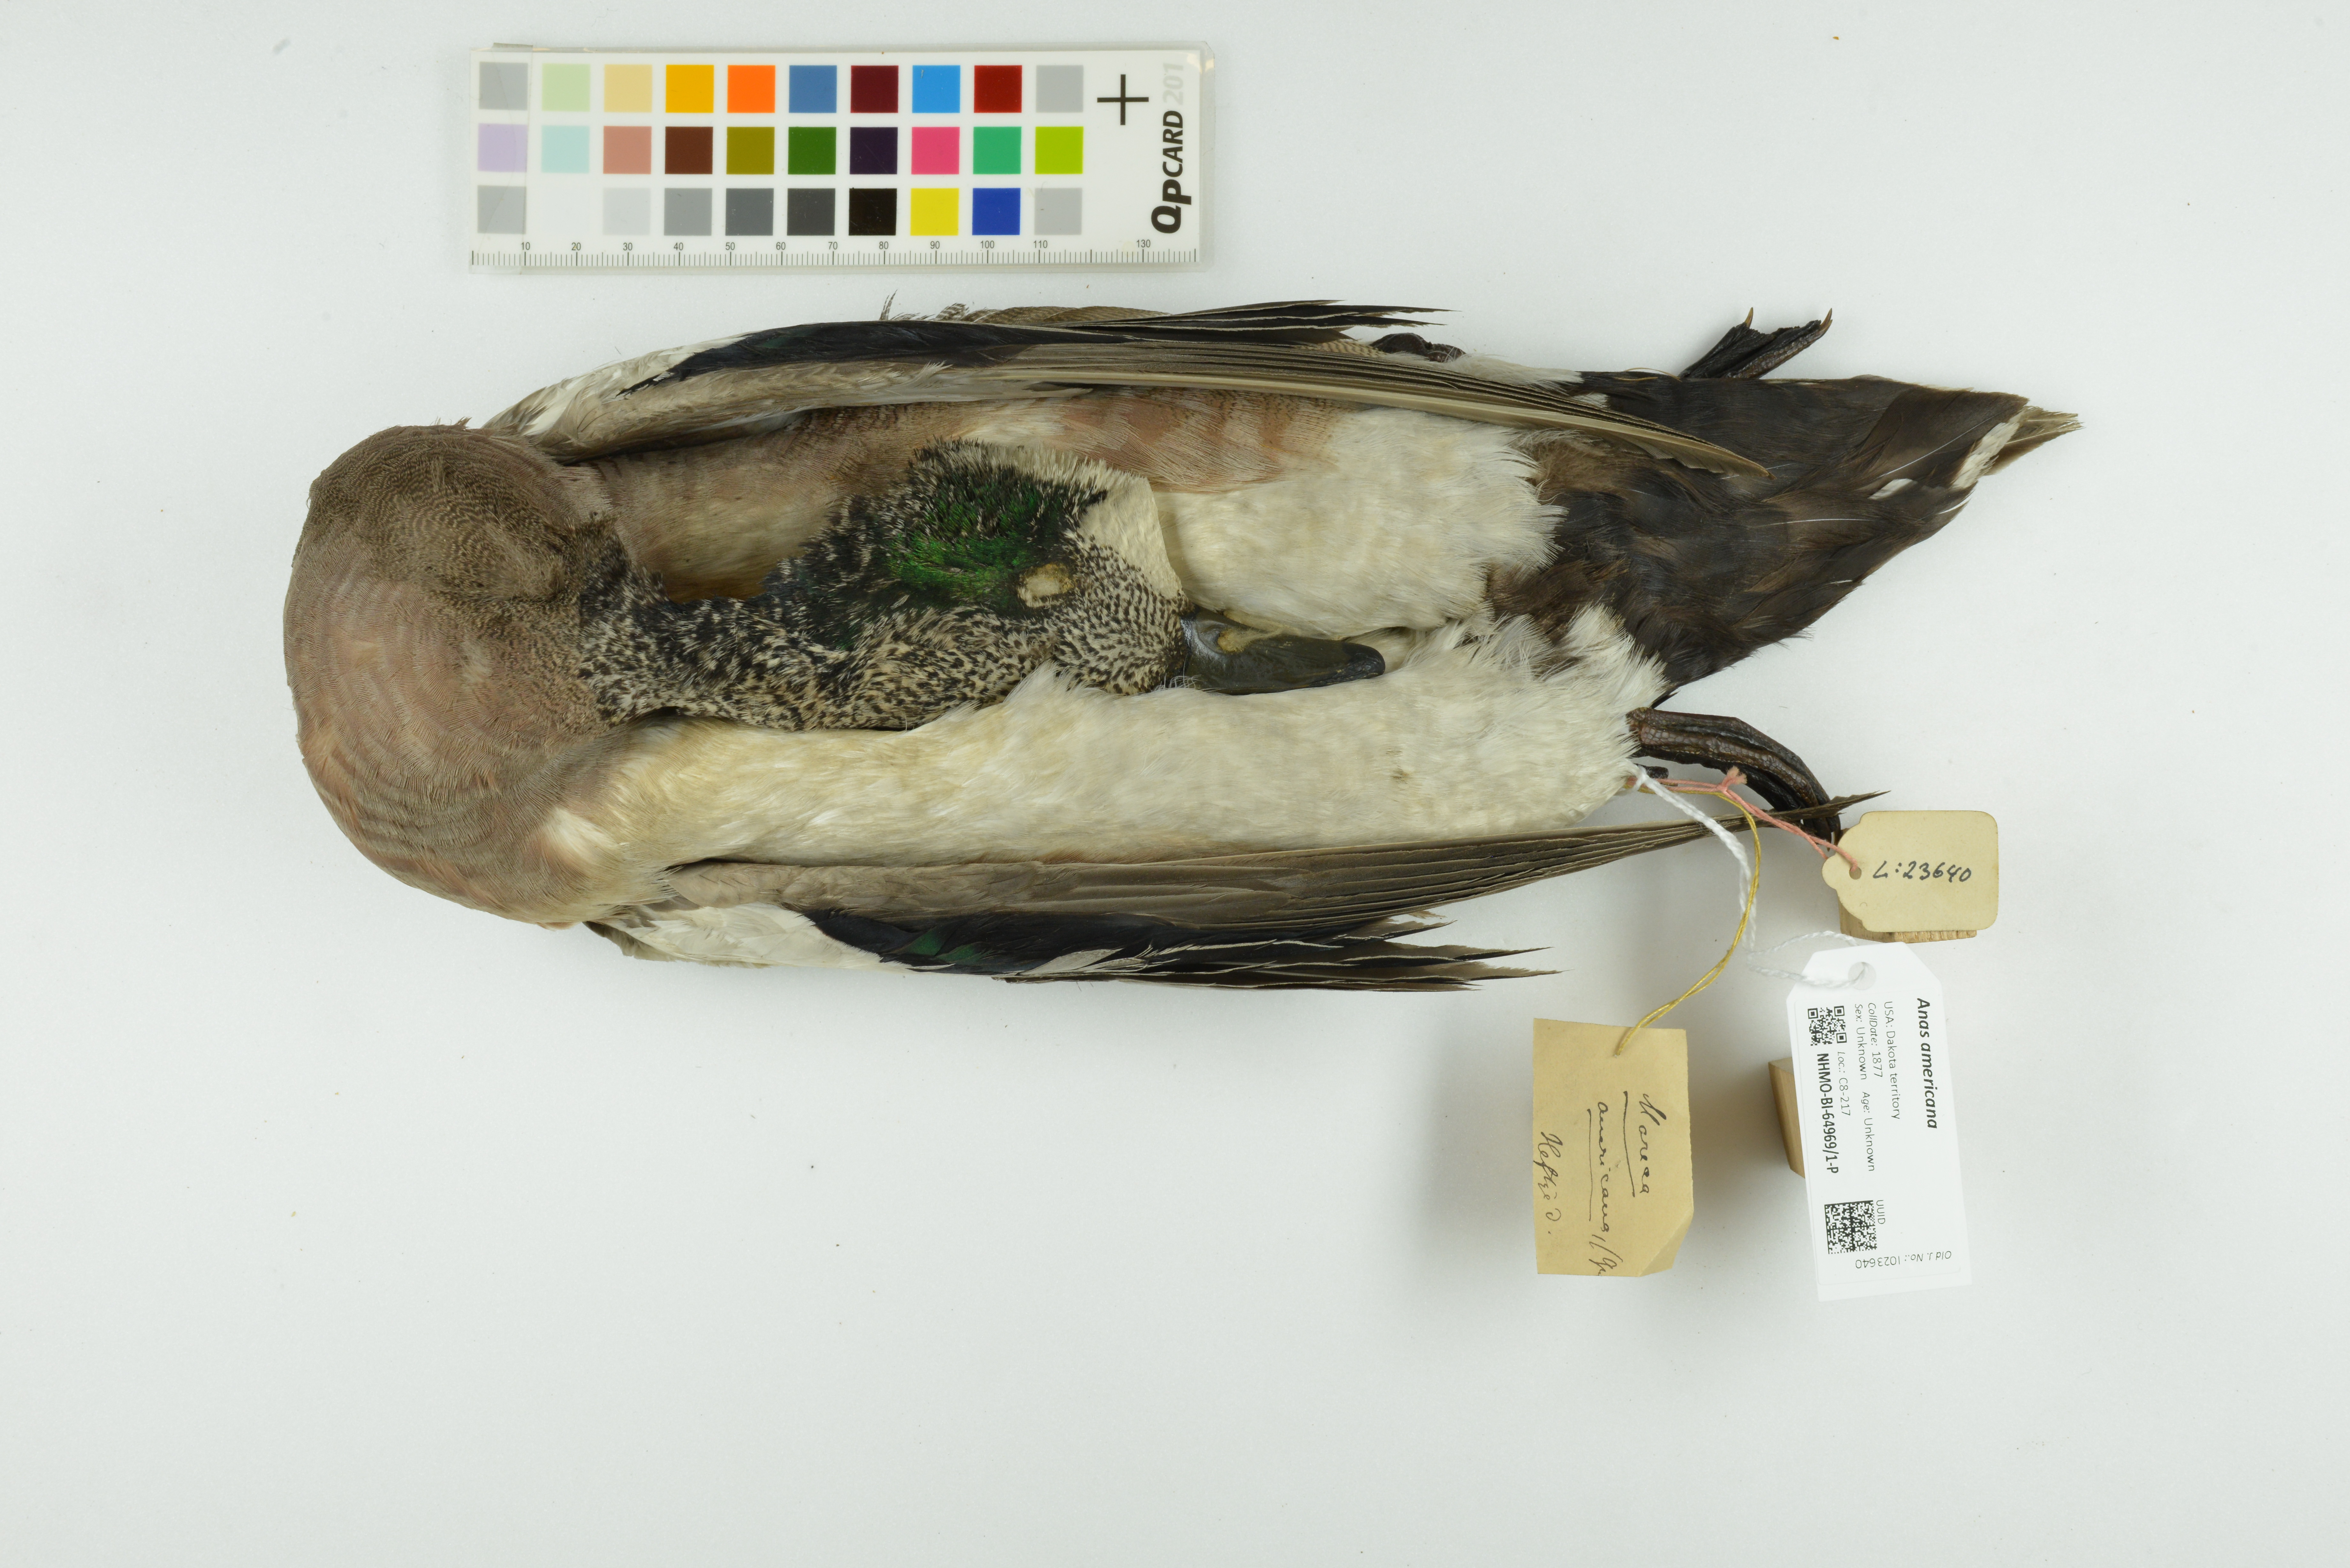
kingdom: Animalia
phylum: Chordata
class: Aves
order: Anseriformes
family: Anatidae
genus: Mareca
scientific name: Mareca americana
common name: American wigeon
